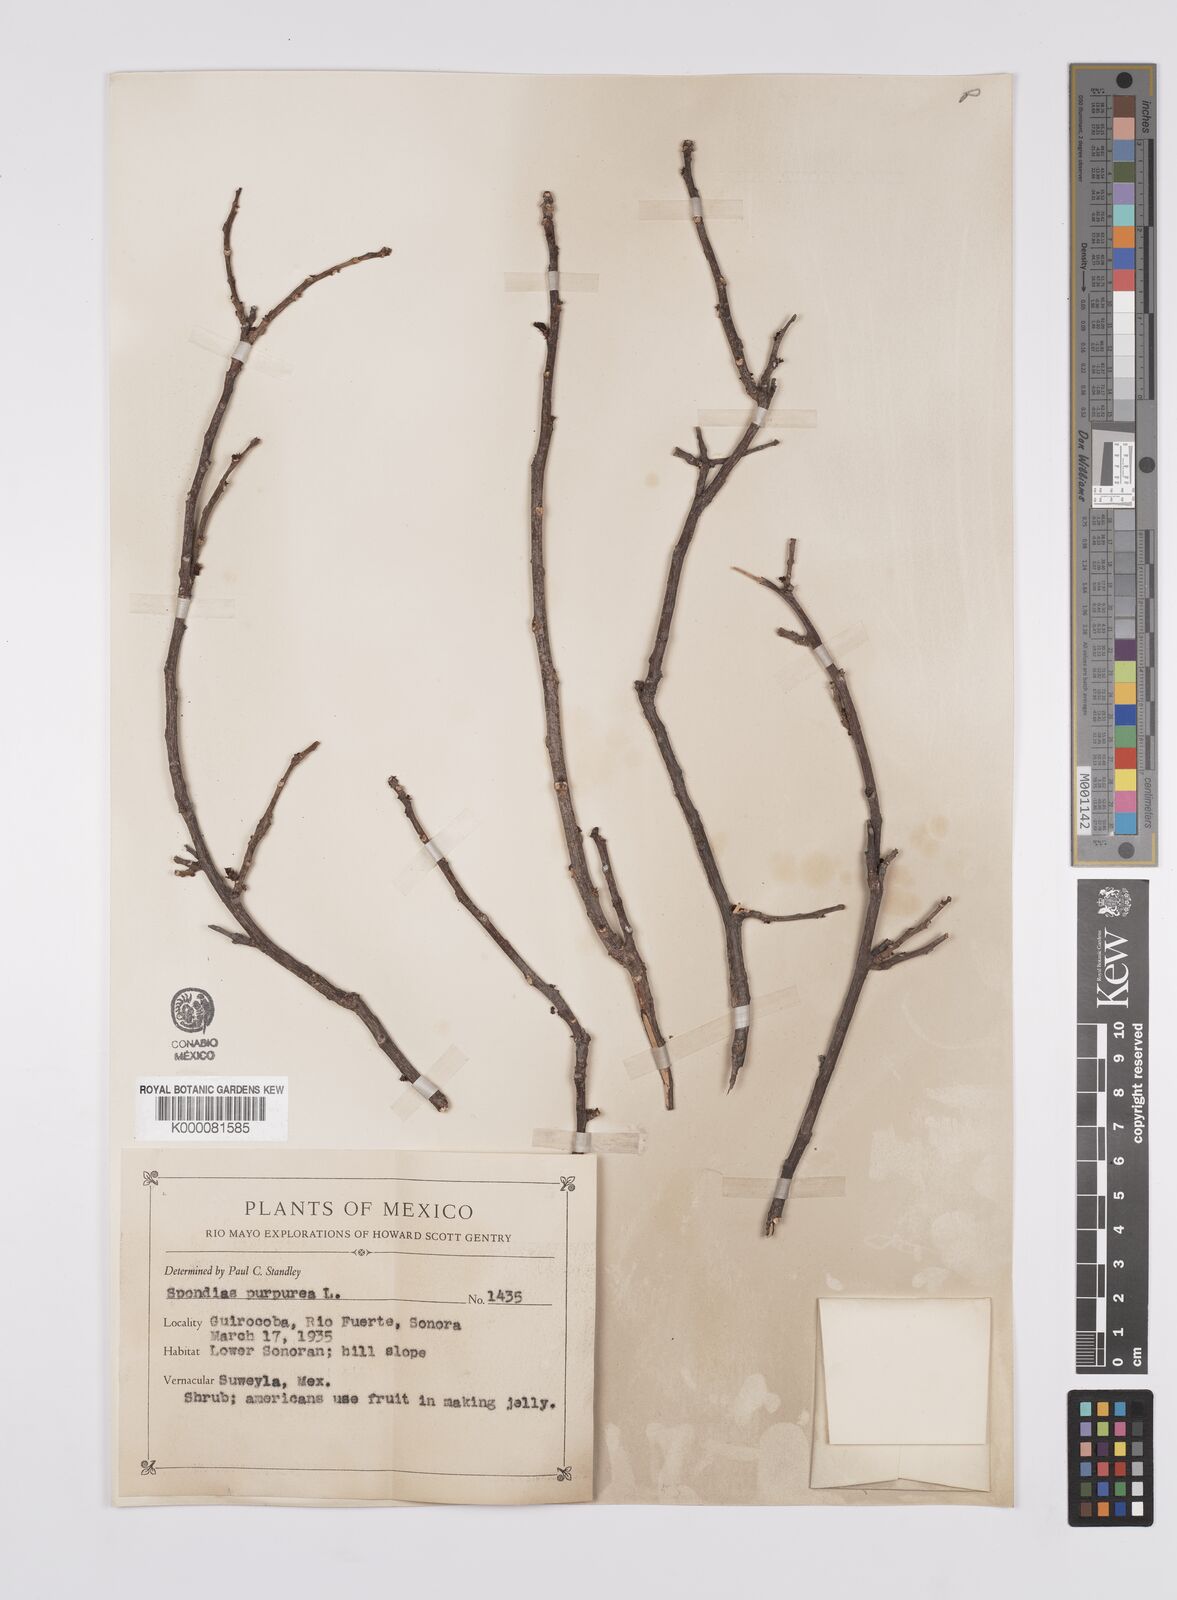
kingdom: Plantae
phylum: Tracheophyta
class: Magnoliopsida
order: Sapindales
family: Anacardiaceae
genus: Spondias
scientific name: Spondias purpurea
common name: Purple mombin
